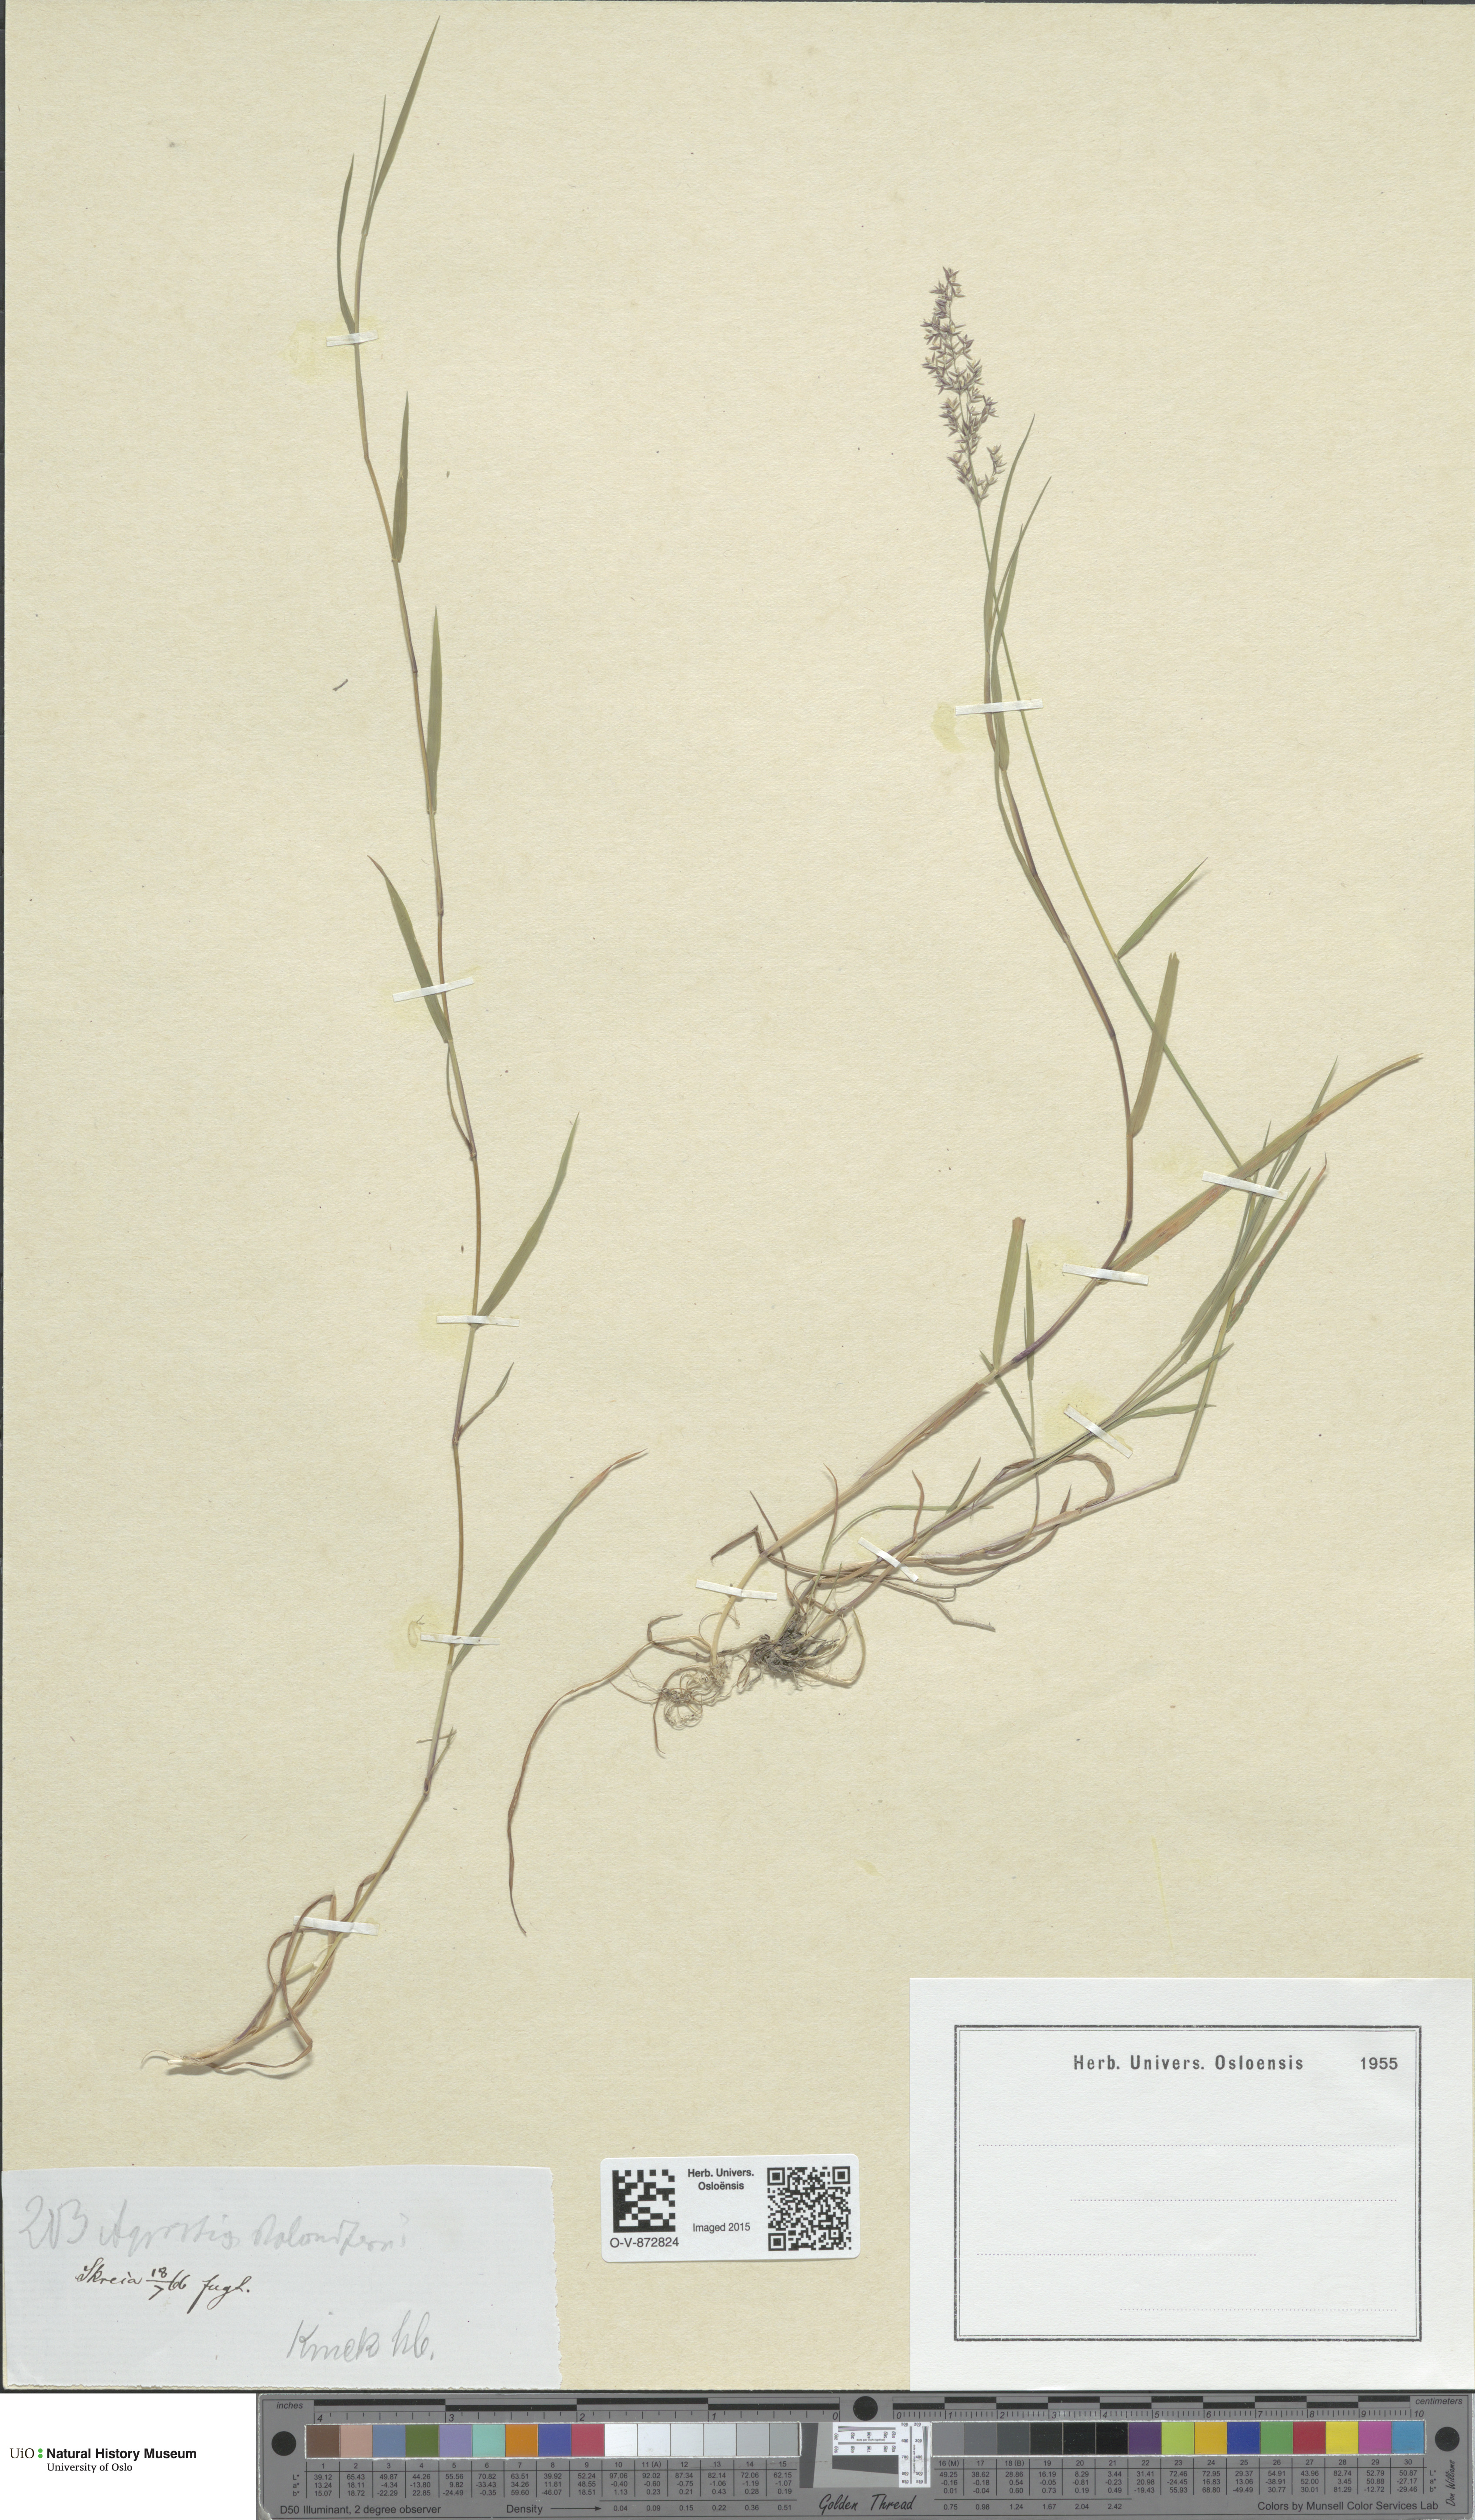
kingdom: Plantae
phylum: Tracheophyta
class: Liliopsida
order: Poales
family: Poaceae
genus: Agrostis
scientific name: Agrostis stolonifera
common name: Creeping bentgrass
